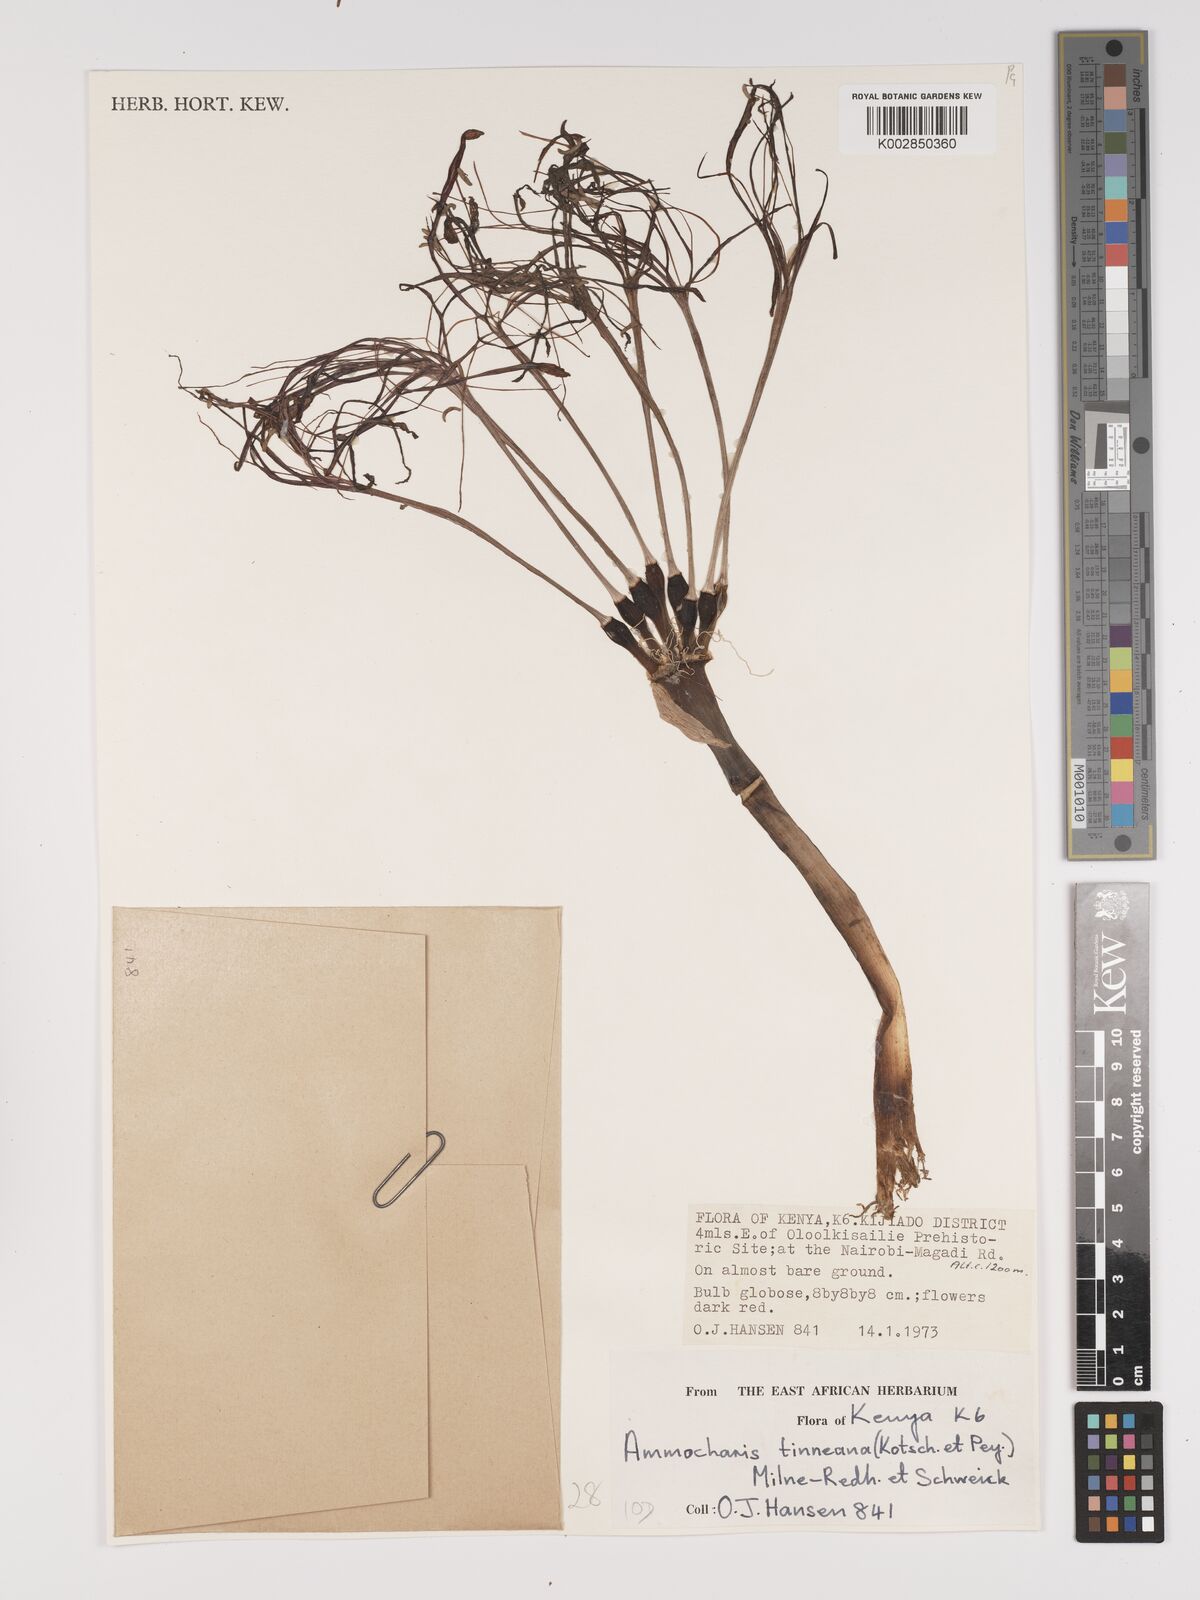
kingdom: Plantae
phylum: Tracheophyta
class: Liliopsida
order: Asparagales
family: Amaryllidaceae
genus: Ammocharis
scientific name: Ammocharis tinneana
